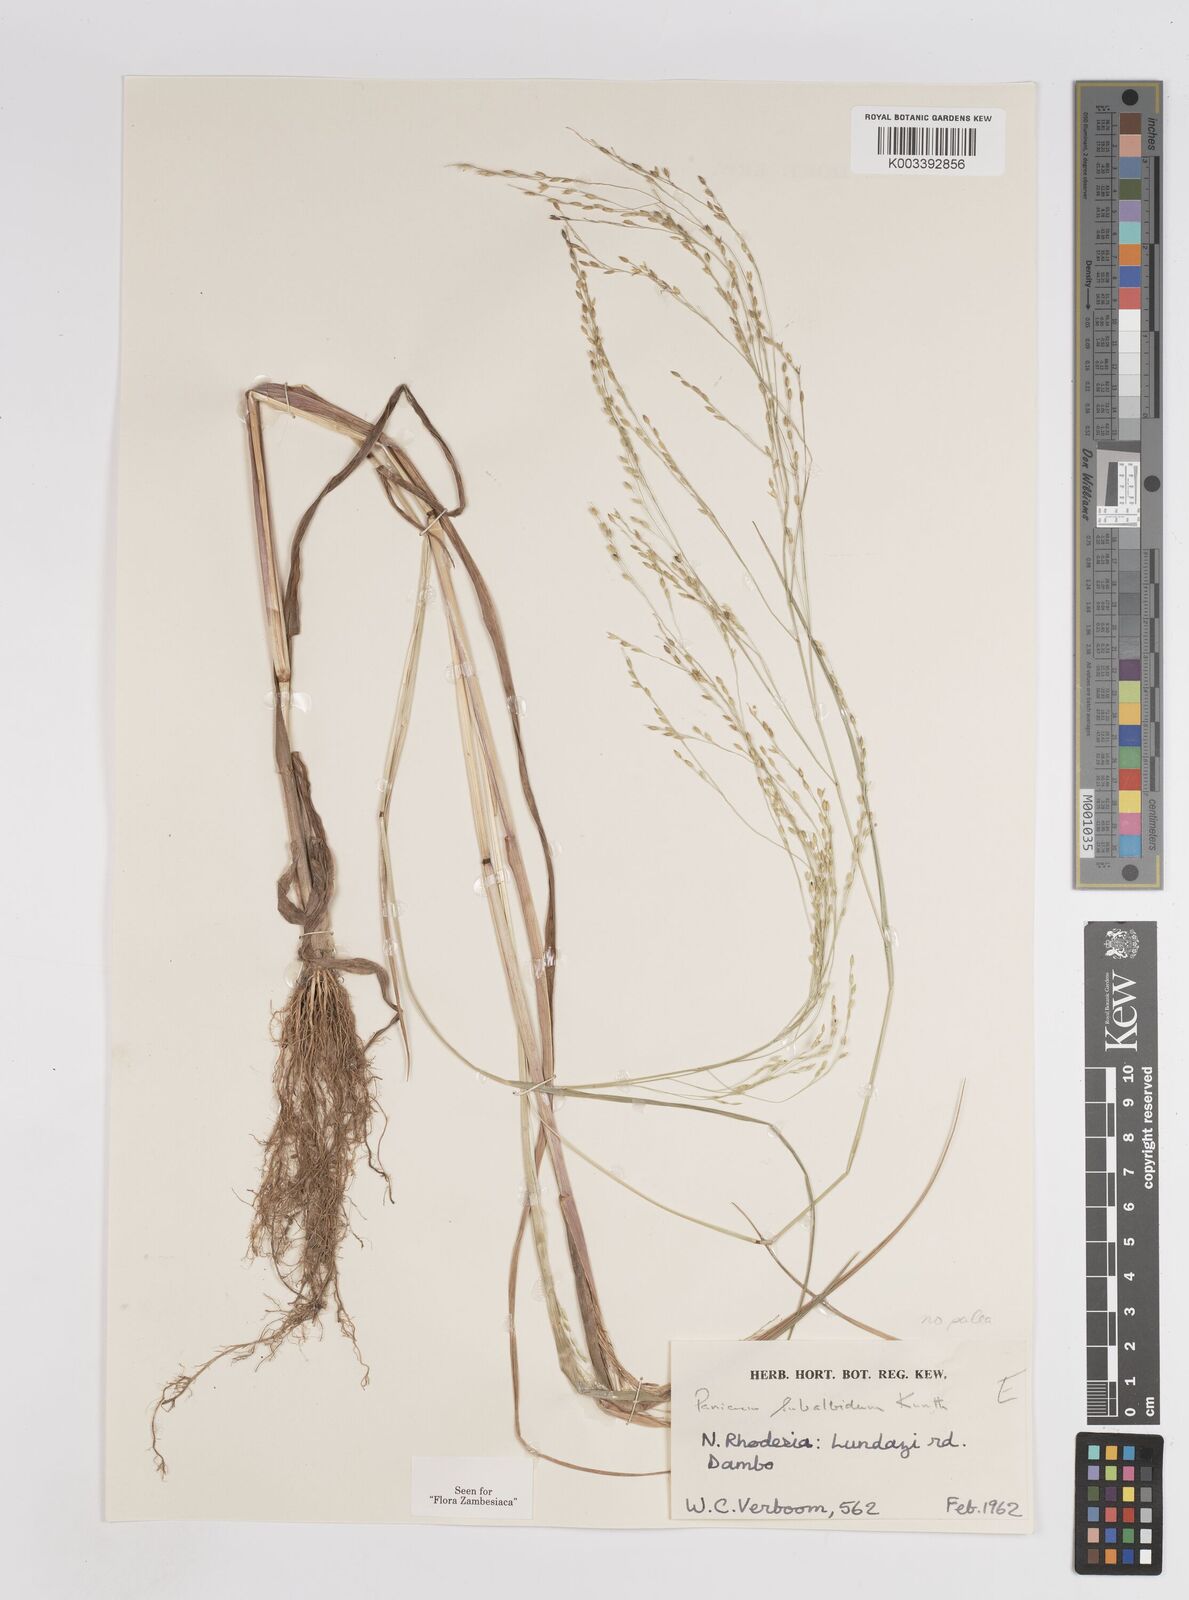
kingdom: Plantae
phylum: Tracheophyta
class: Liliopsida
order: Poales
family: Poaceae
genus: Panicum
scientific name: Panicum subalbidum
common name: Elbow buffalo grass
